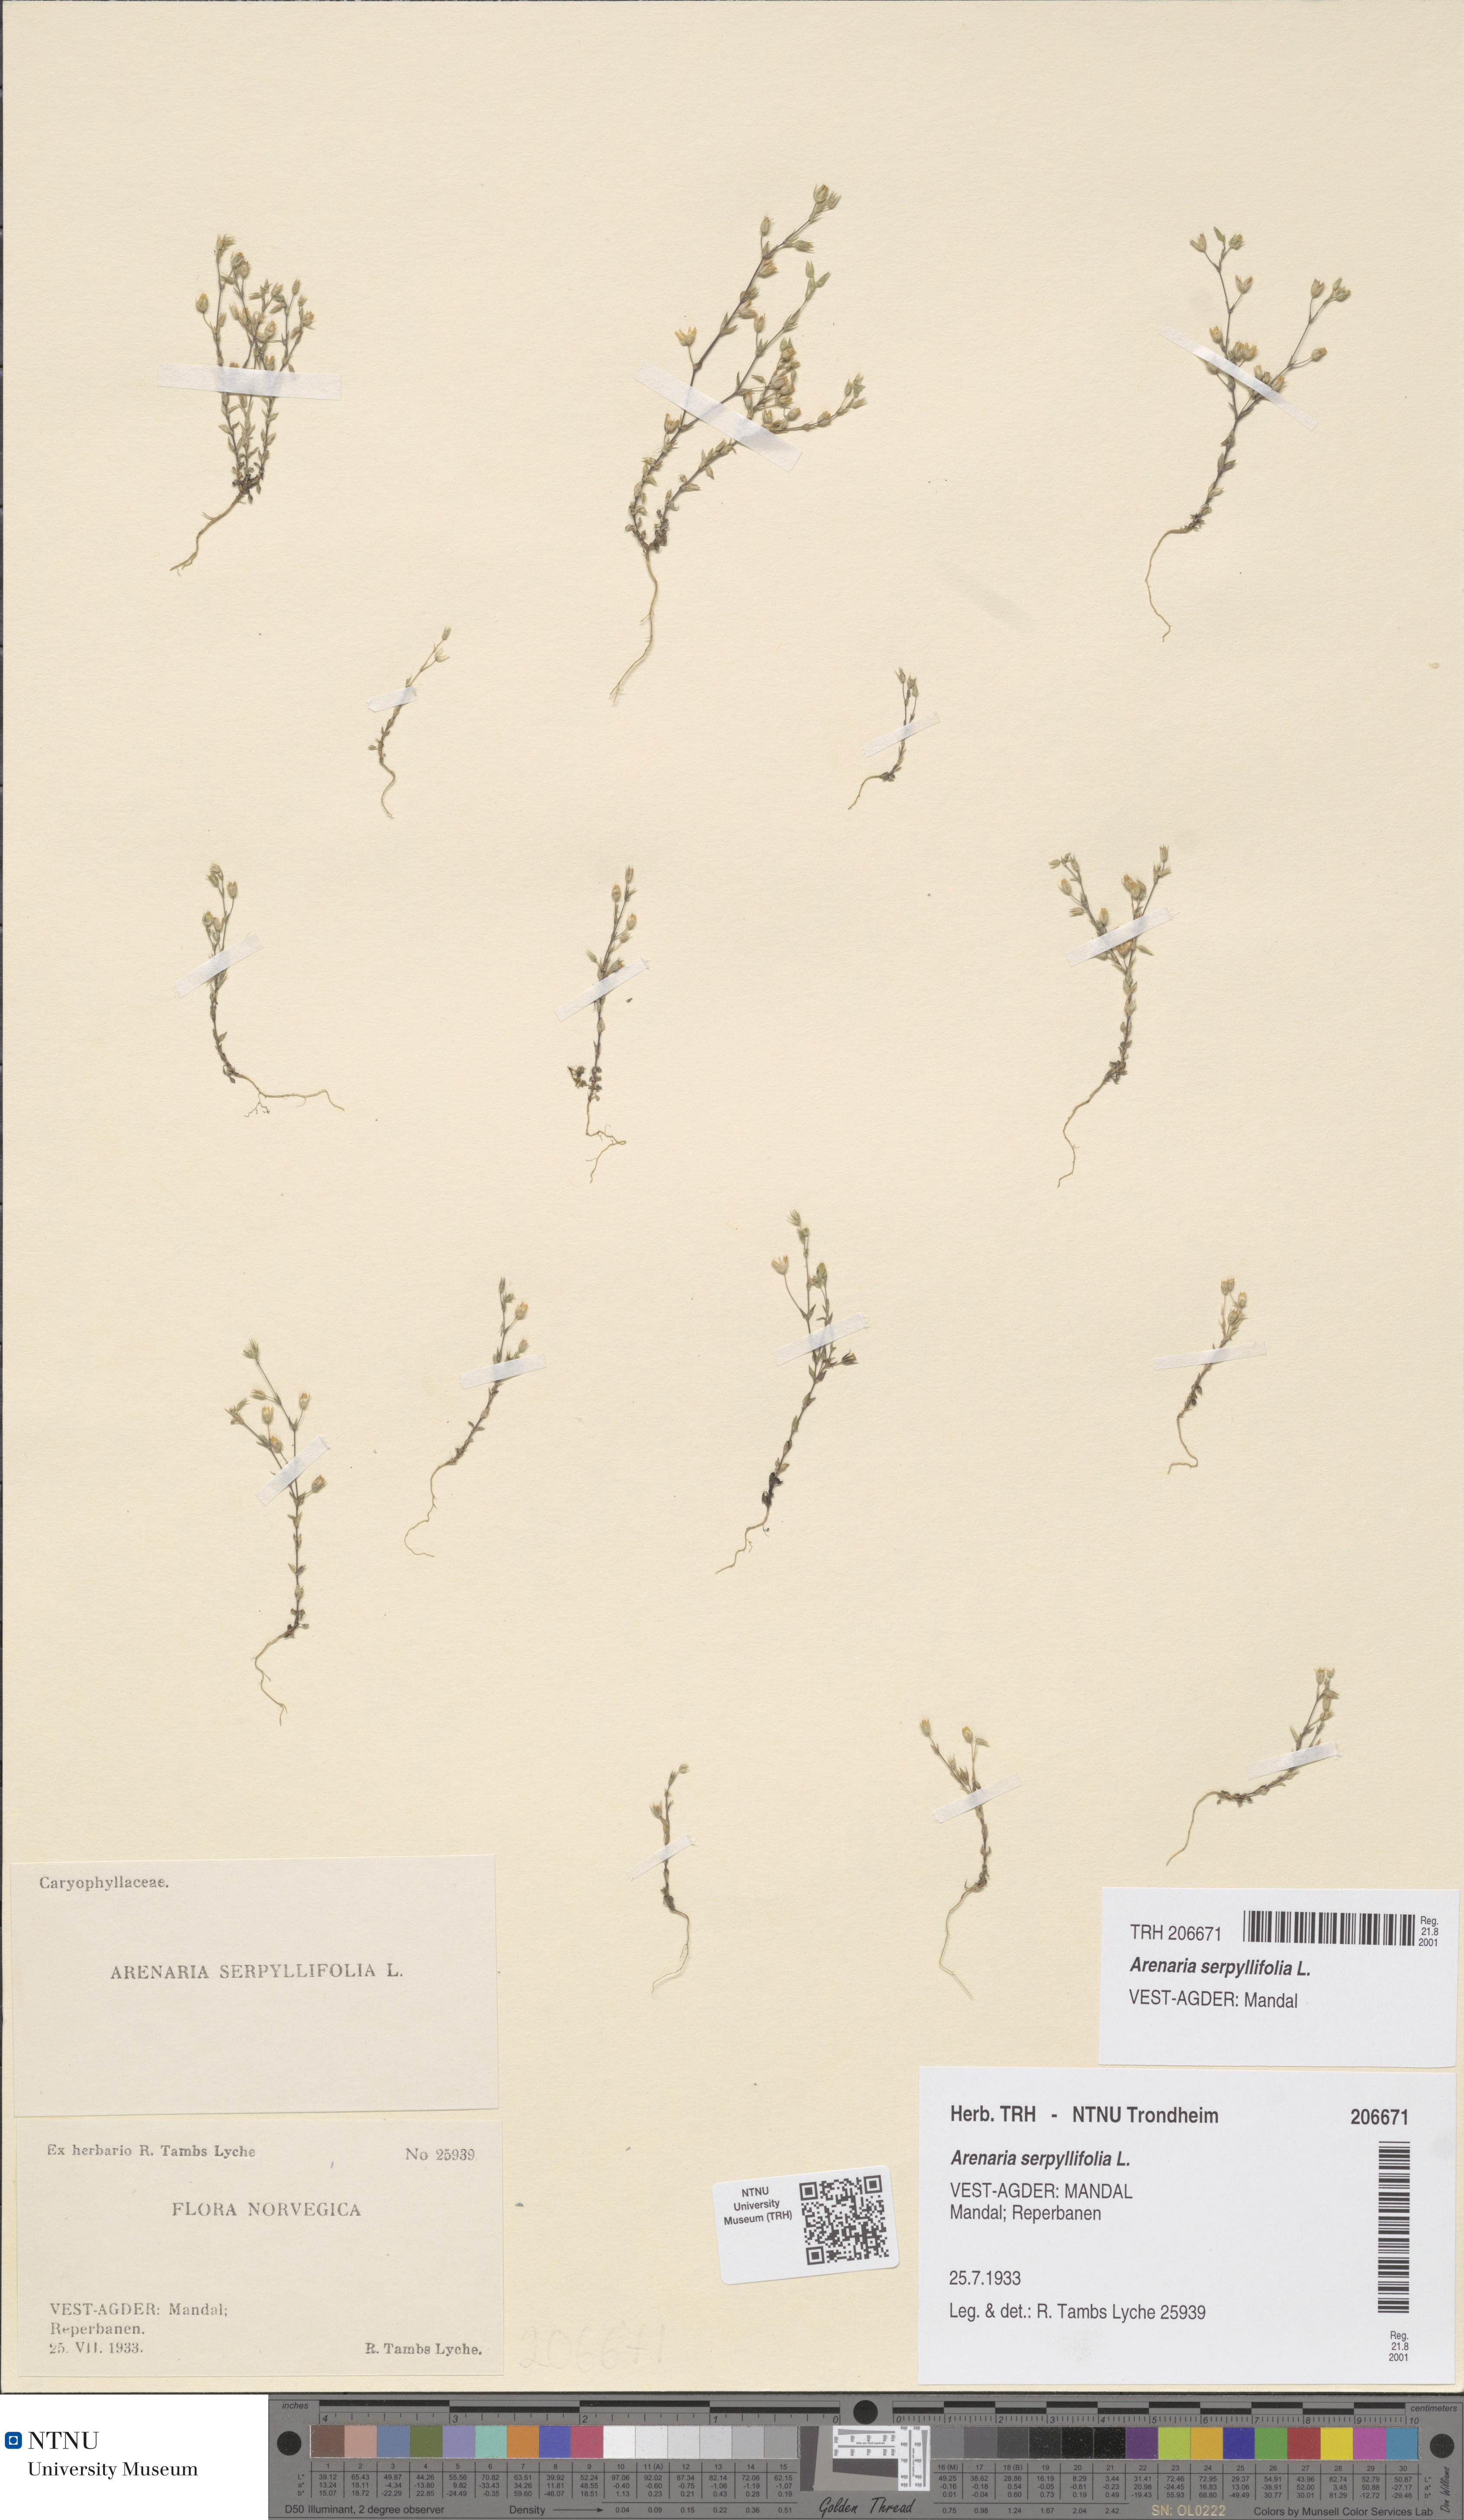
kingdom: Plantae
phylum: Tracheophyta
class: Magnoliopsida
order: Caryophyllales
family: Caryophyllaceae
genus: Arenaria
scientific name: Arenaria serpyllifolia
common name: Thyme-leaved sandwort
